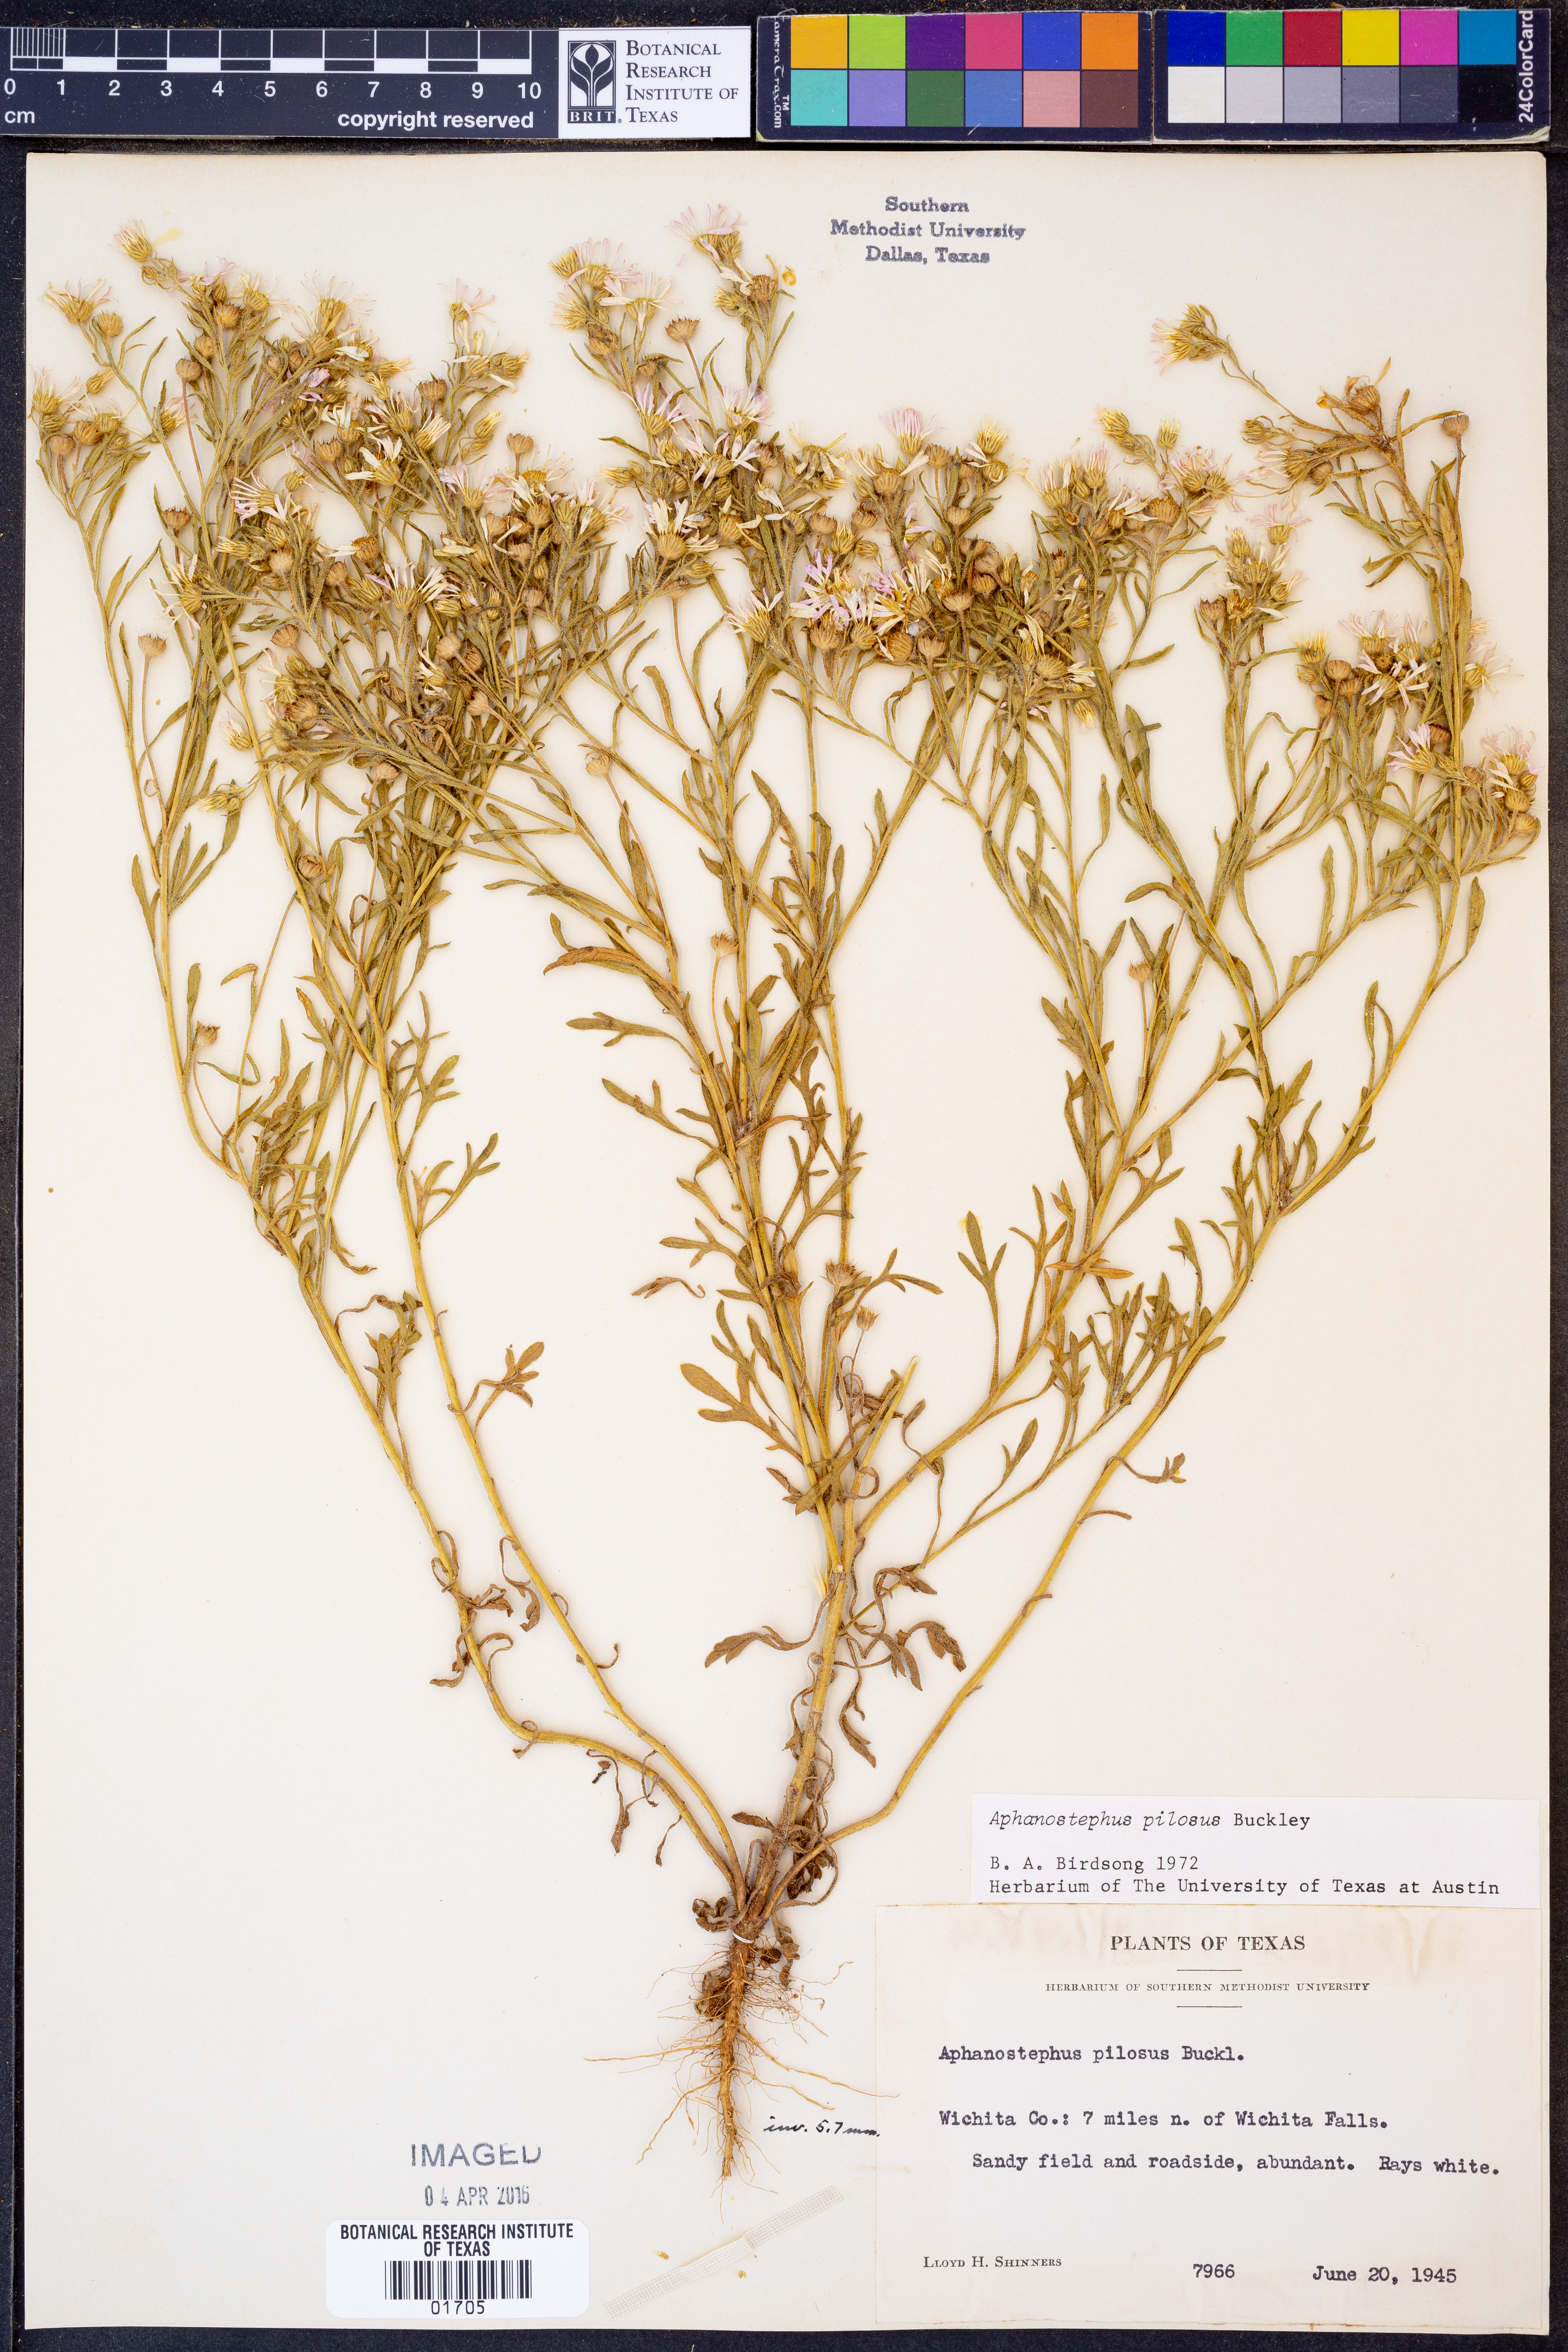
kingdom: Plantae
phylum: Tracheophyta
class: Magnoliopsida
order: Asterales
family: Asteraceae
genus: Aphanostephus
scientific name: Aphanostephus pilosus
